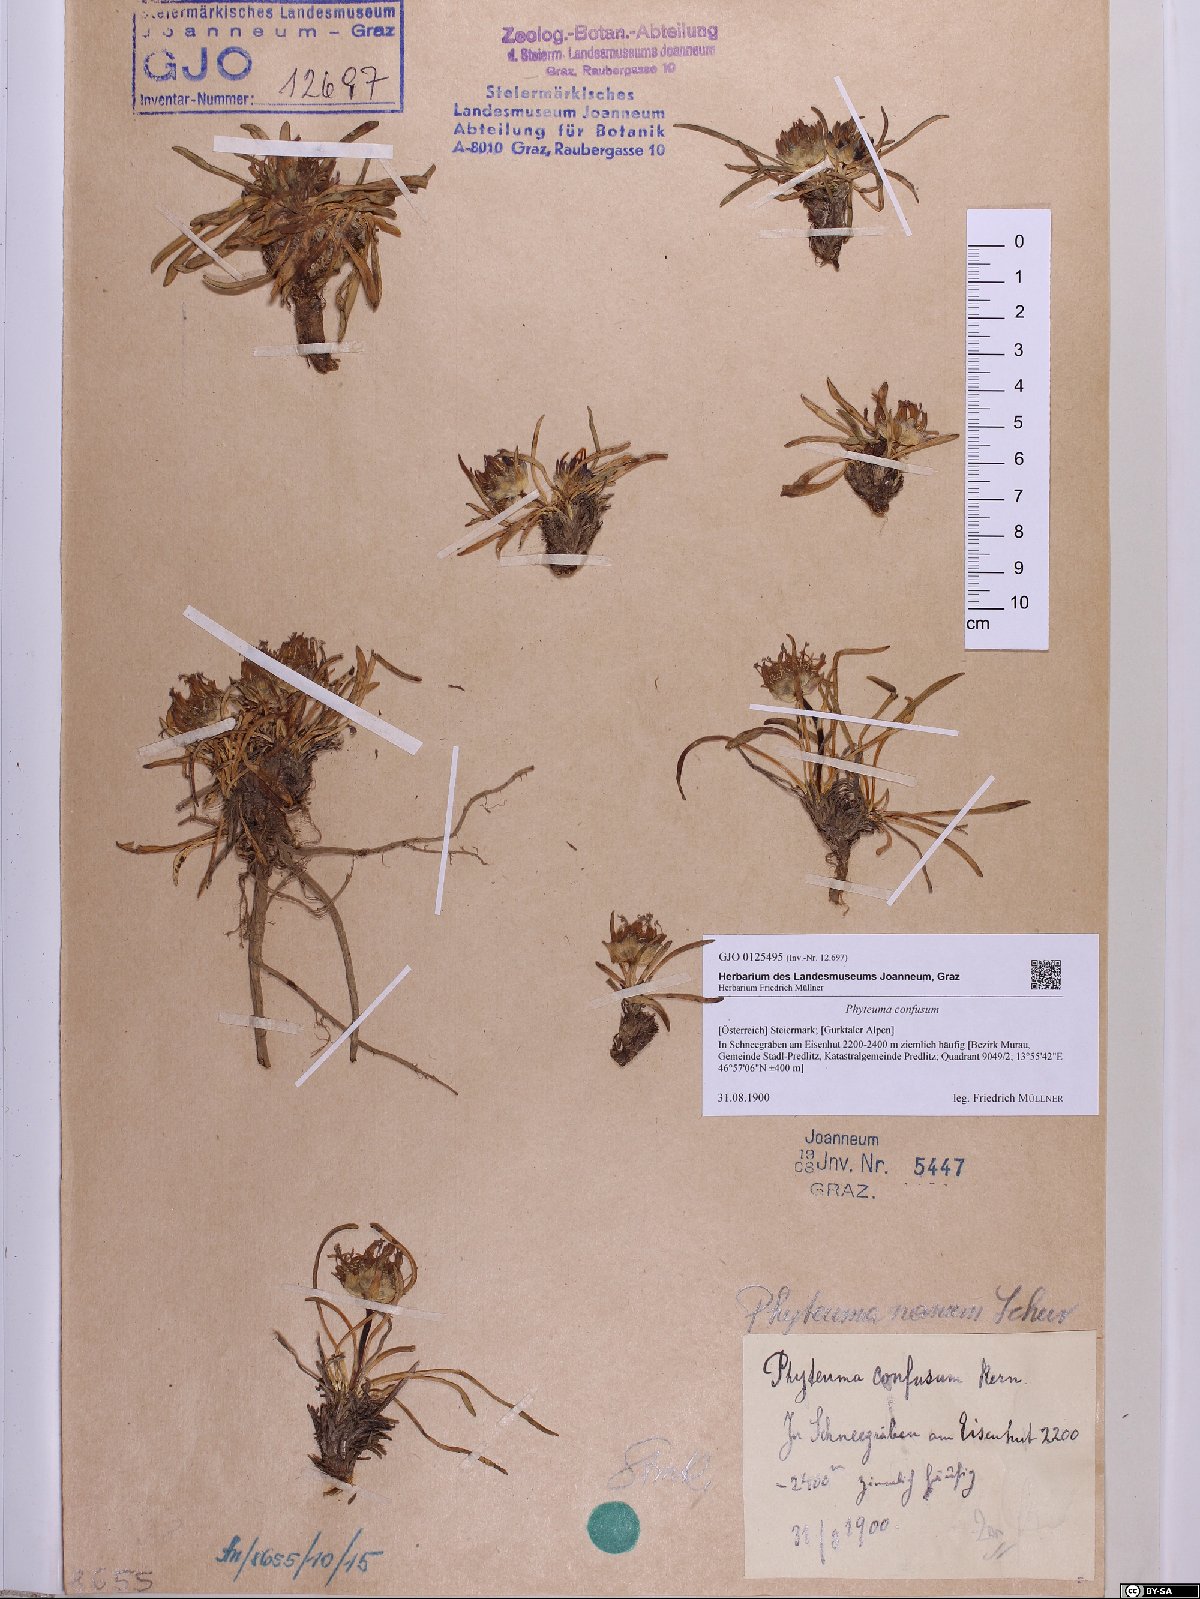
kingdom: Plantae
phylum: Tracheophyta
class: Magnoliopsida
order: Asterales
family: Campanulaceae
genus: Phyteuma
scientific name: Phyteuma confusum
